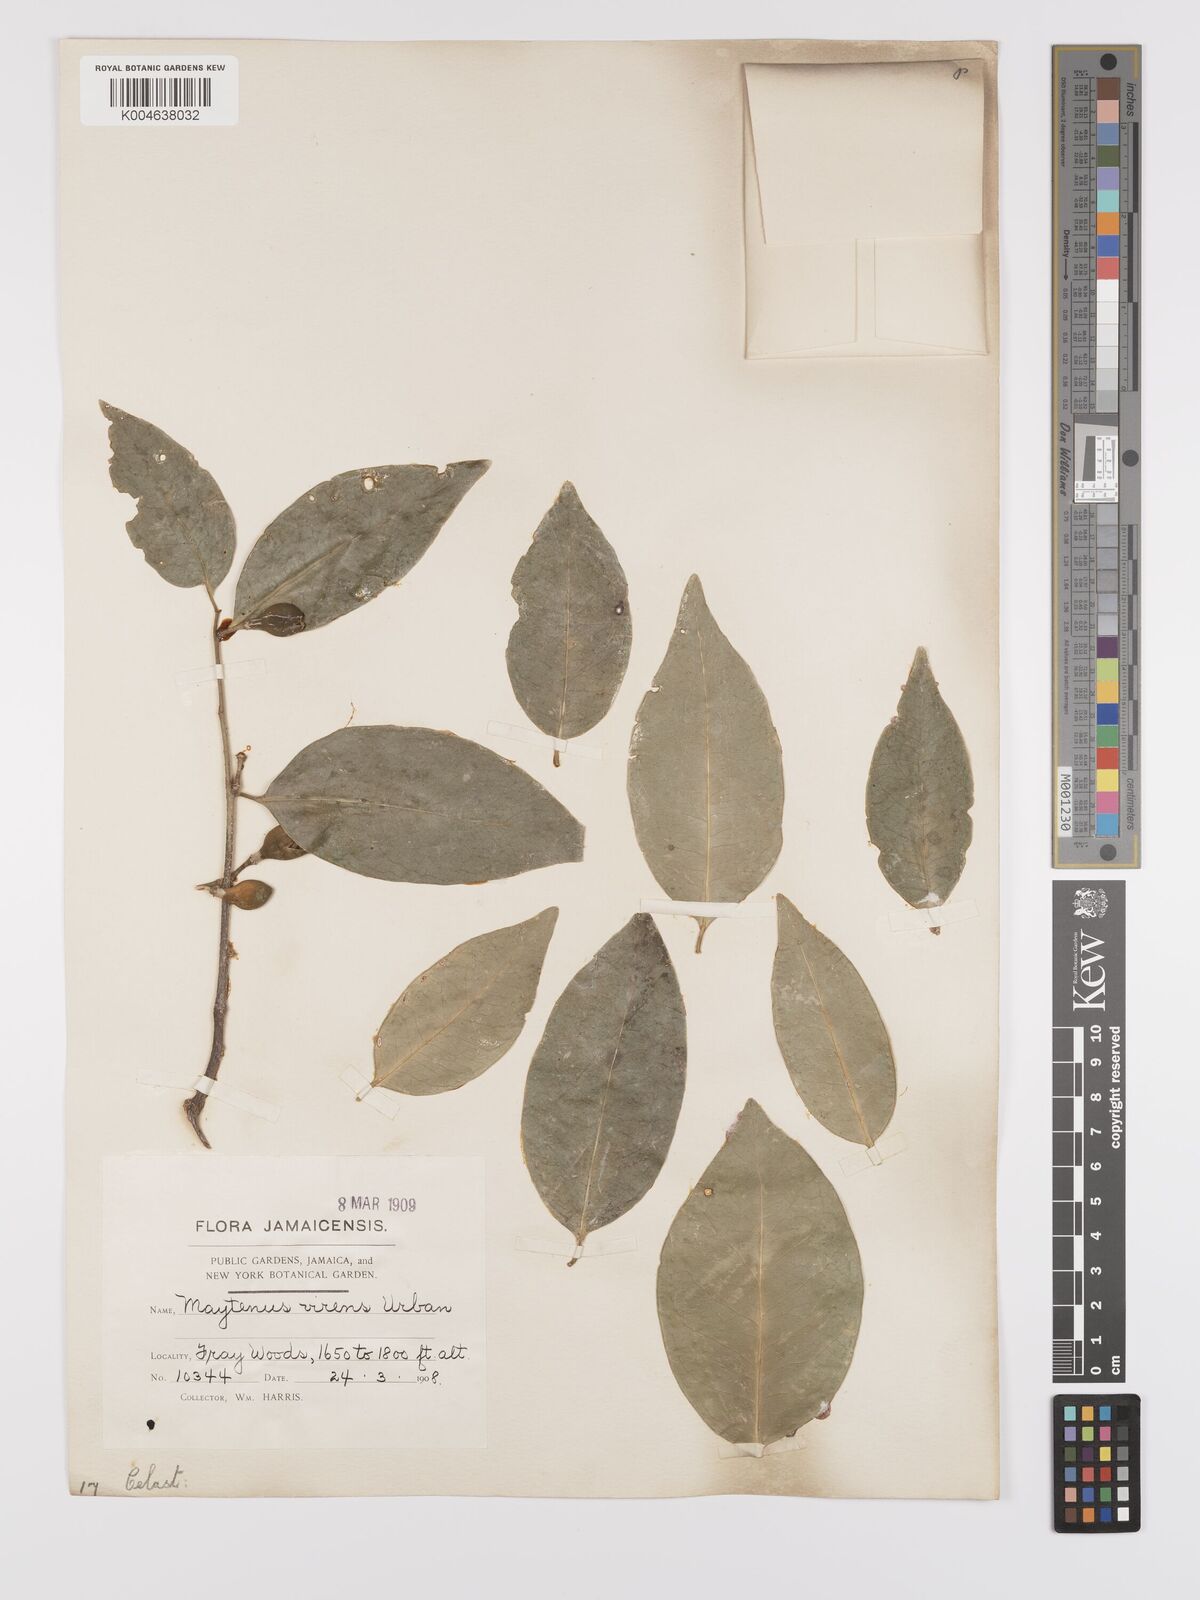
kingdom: Plantae
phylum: Tracheophyta
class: Magnoliopsida
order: Celastrales
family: Celastraceae
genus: Monteverdia
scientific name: Monteverdia virens
